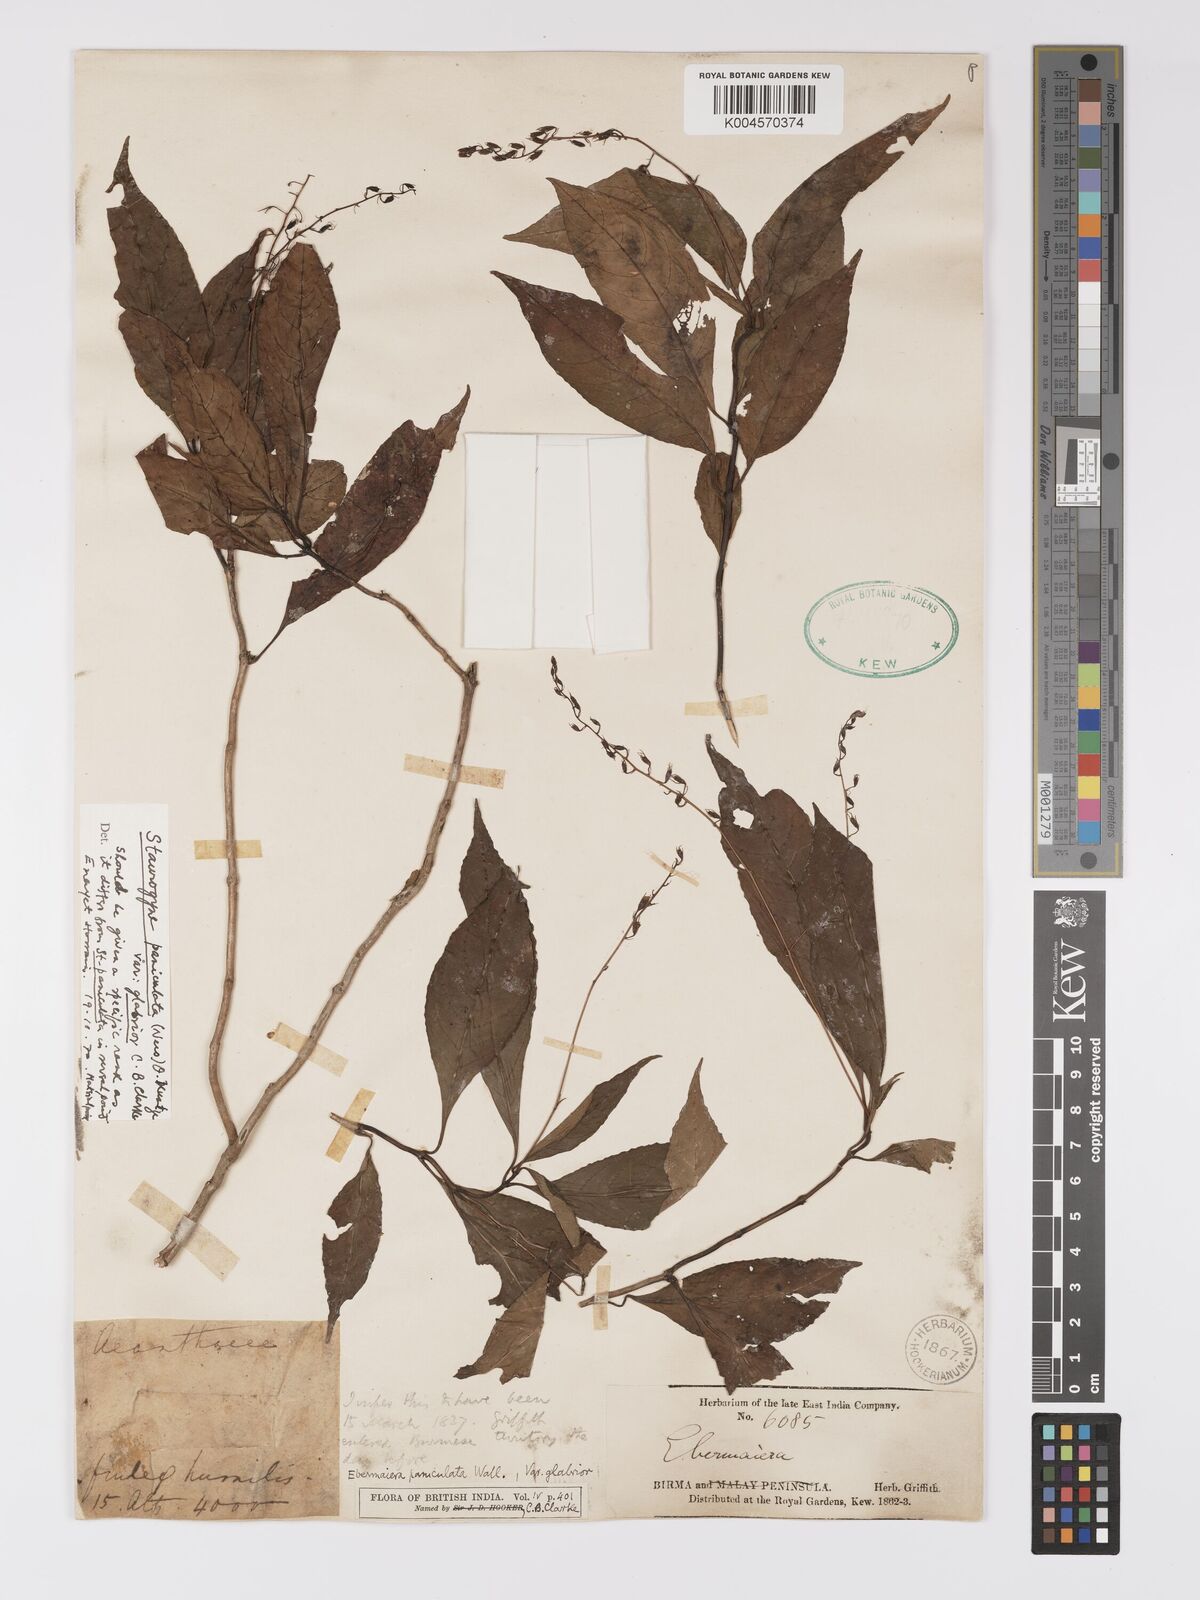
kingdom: Plantae
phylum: Tracheophyta
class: Magnoliopsida
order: Lamiales
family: Acanthaceae
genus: Staurogyne
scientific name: Staurogyne paniculata
